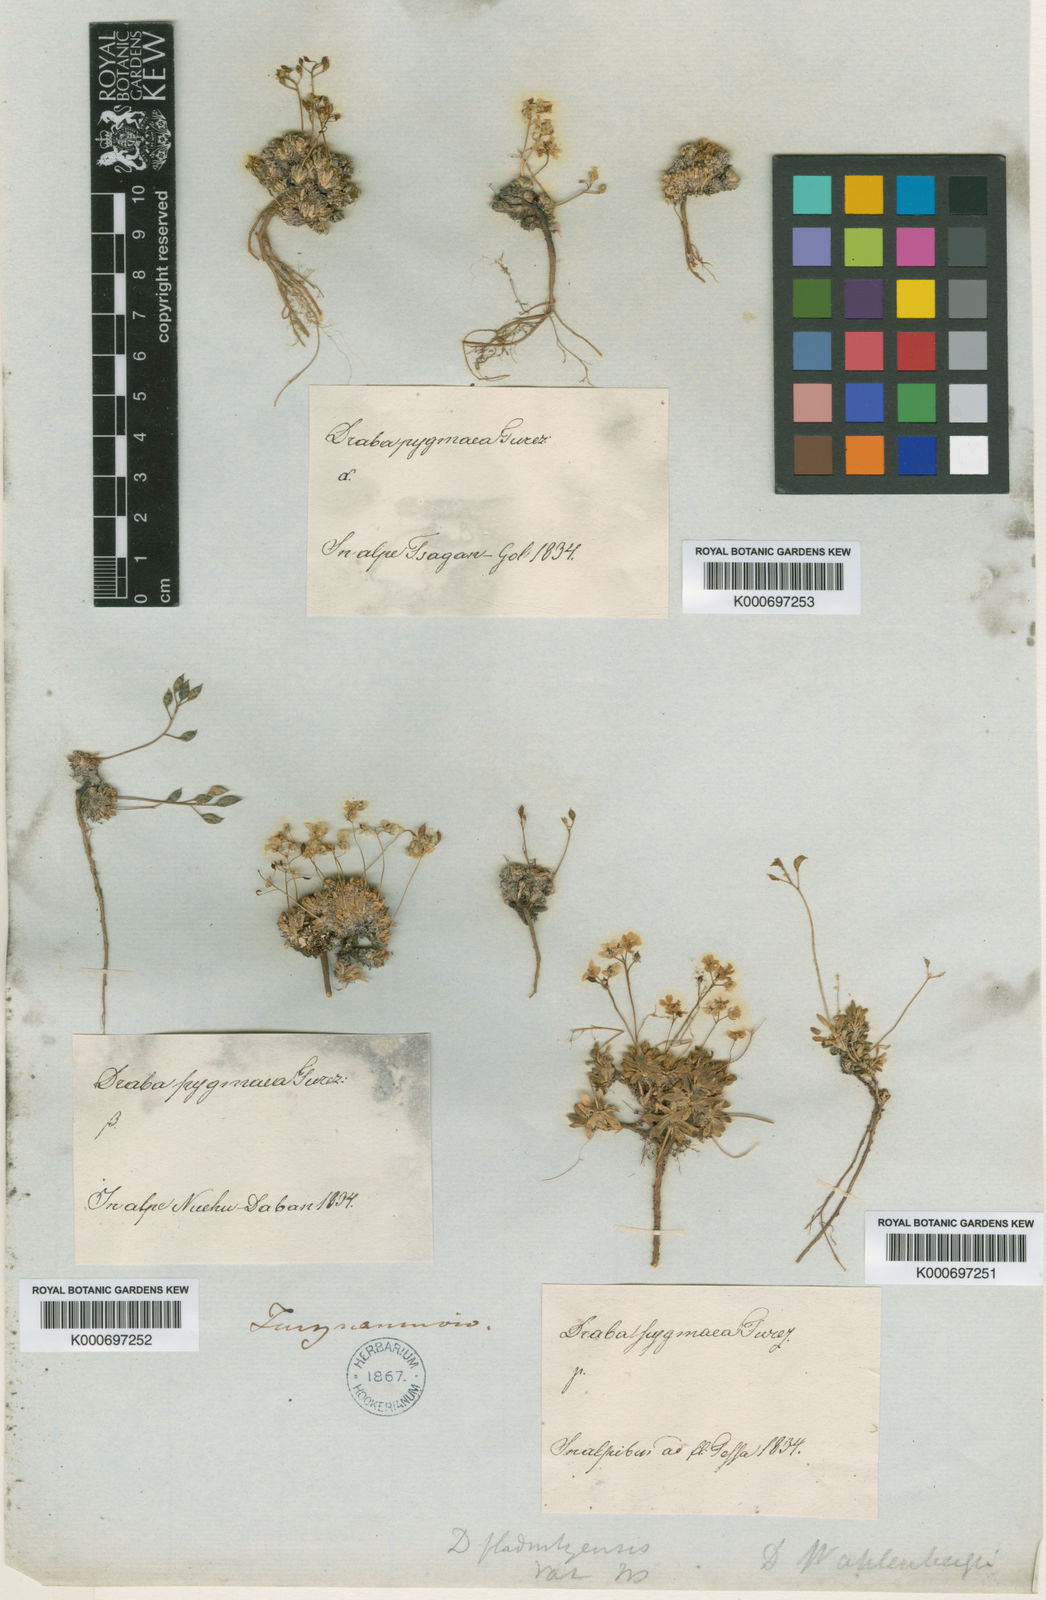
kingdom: Plantae
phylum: Tracheophyta
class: Magnoliopsida
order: Brassicales
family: Brassicaceae
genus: Draba
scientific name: Draba lactea
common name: Milky draba
